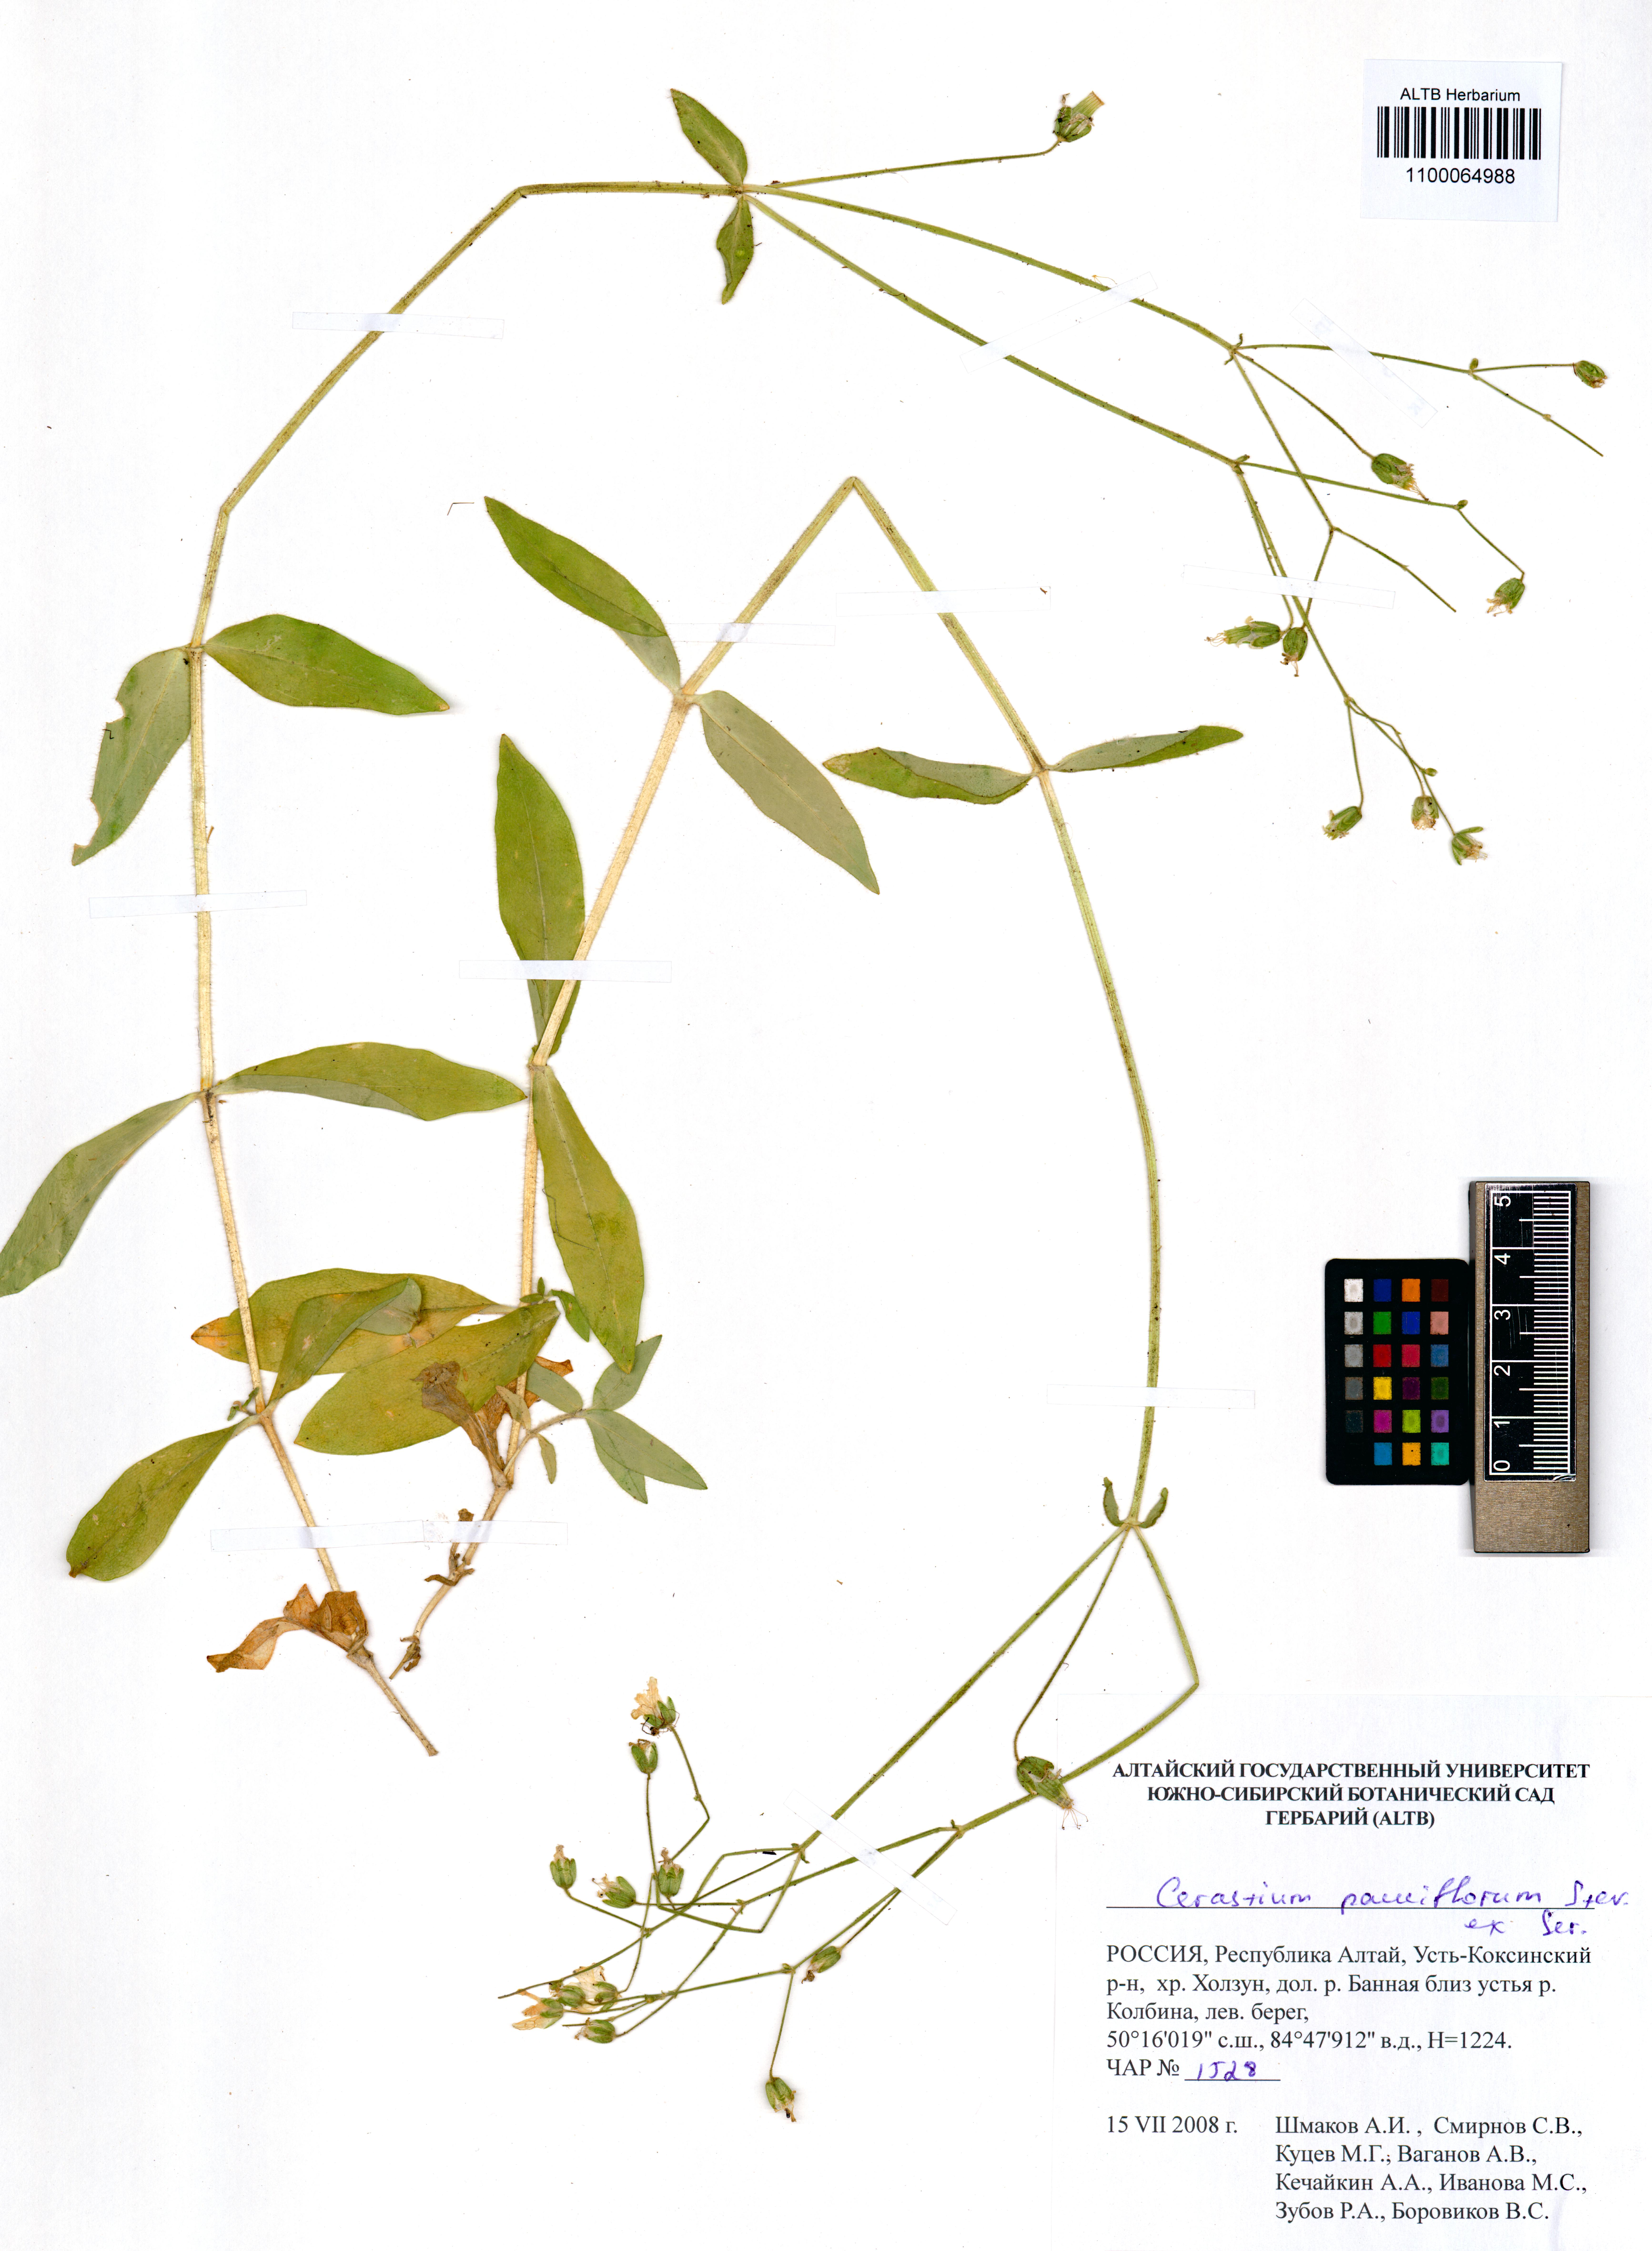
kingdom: Plantae
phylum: Tracheophyta
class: Magnoliopsida
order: Caryophyllales
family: Caryophyllaceae
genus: Cerastium
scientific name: Cerastium pauciflorum
